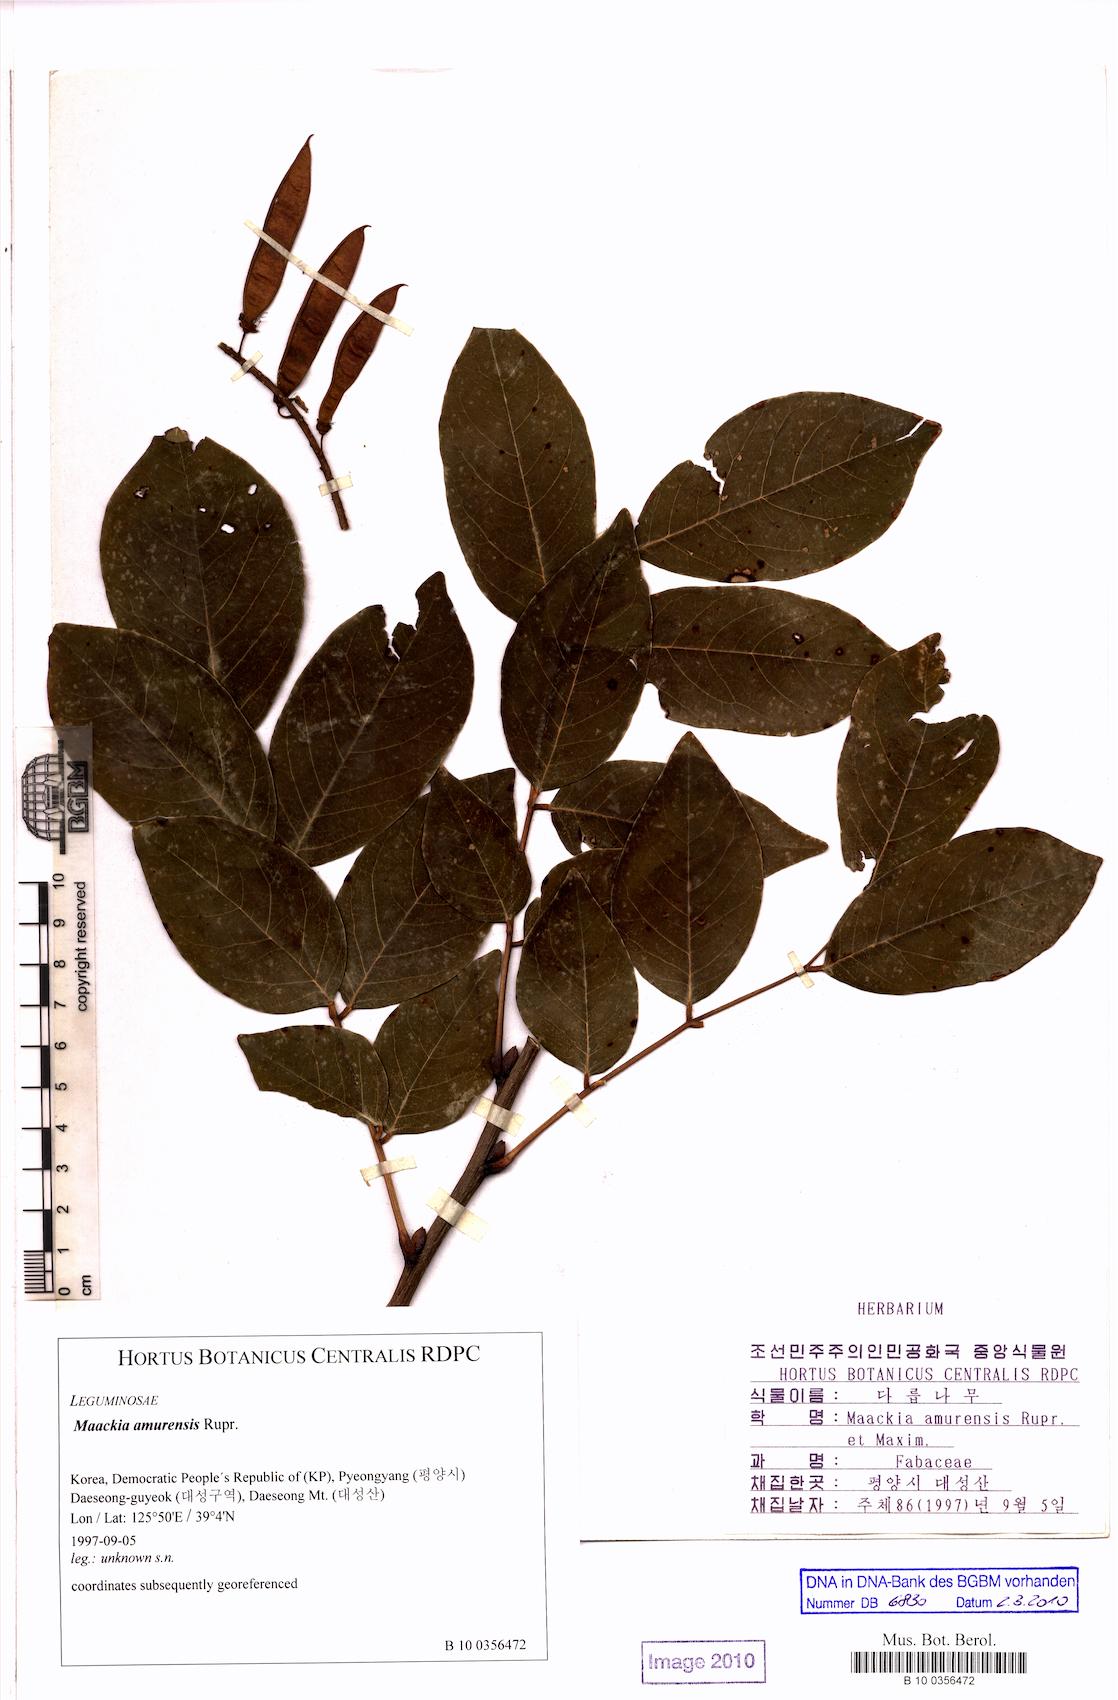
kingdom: Plantae
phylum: Tracheophyta
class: Magnoliopsida
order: Fabales
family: Fabaceae
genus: Maackia
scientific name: Maackia amurensis
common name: Amur maackia
